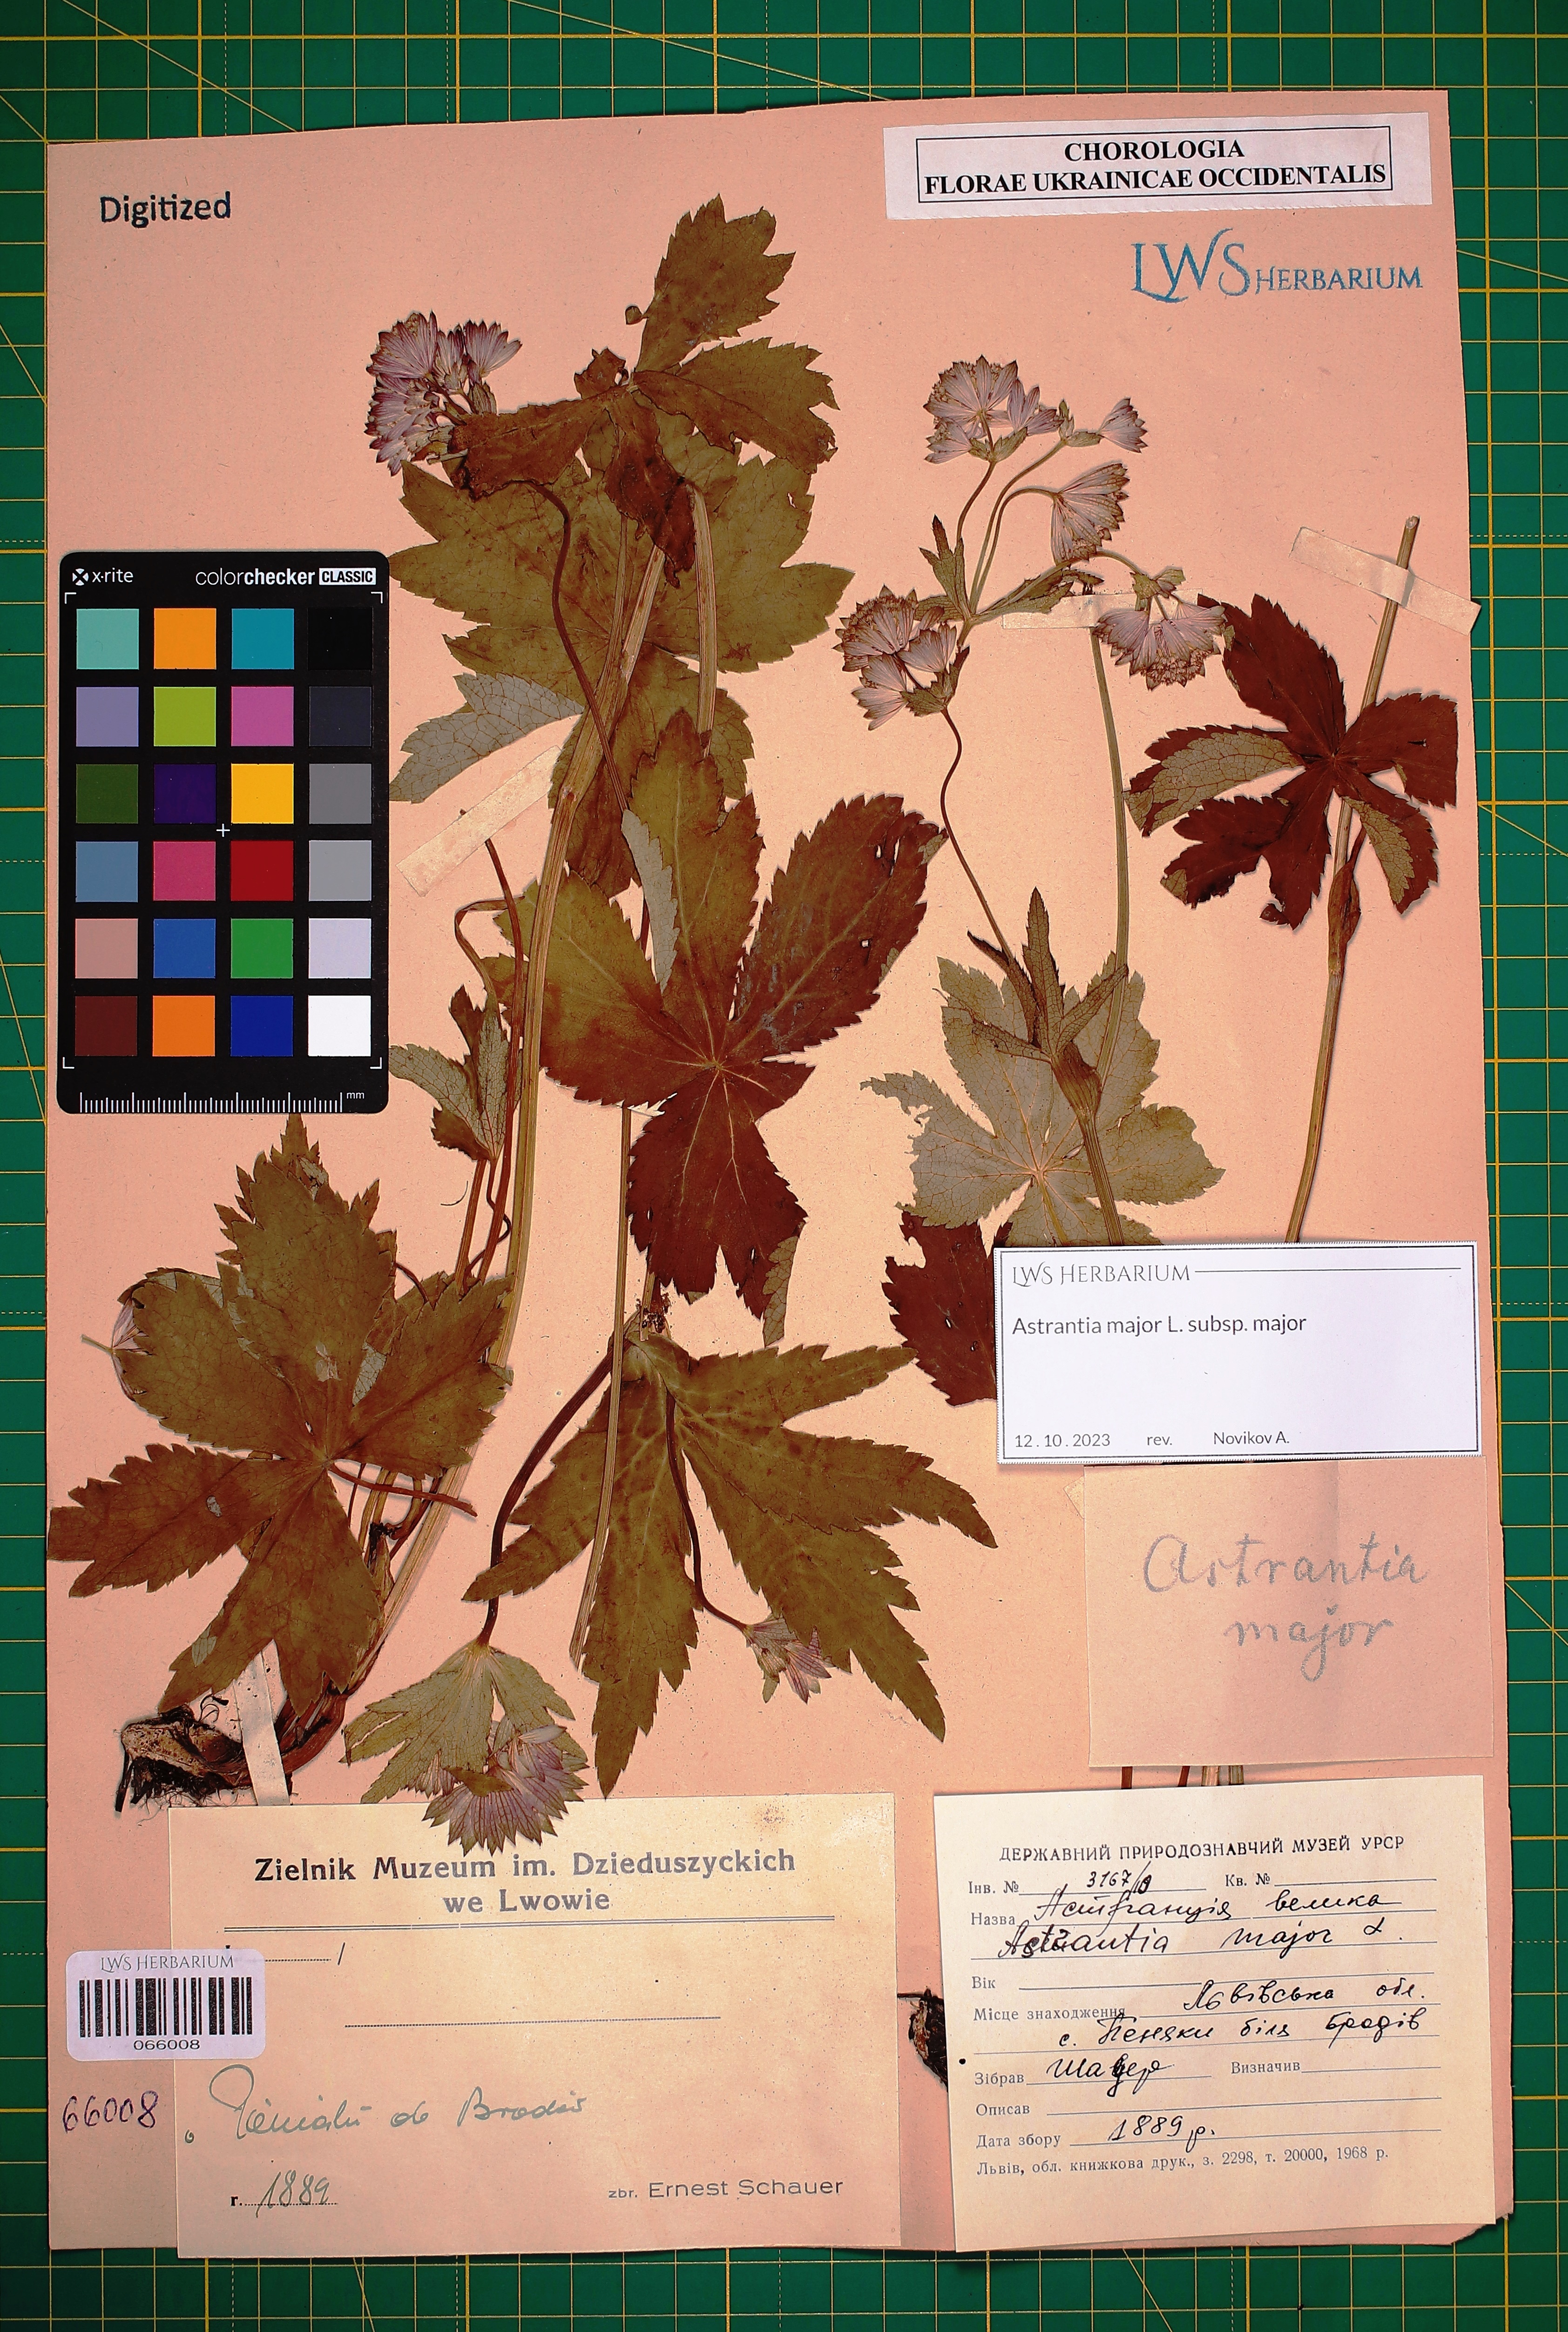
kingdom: Plantae
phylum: Tracheophyta
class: Magnoliopsida
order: Apiales
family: Apiaceae
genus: Astrantia
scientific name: Astrantia major
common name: Greater masterwort
